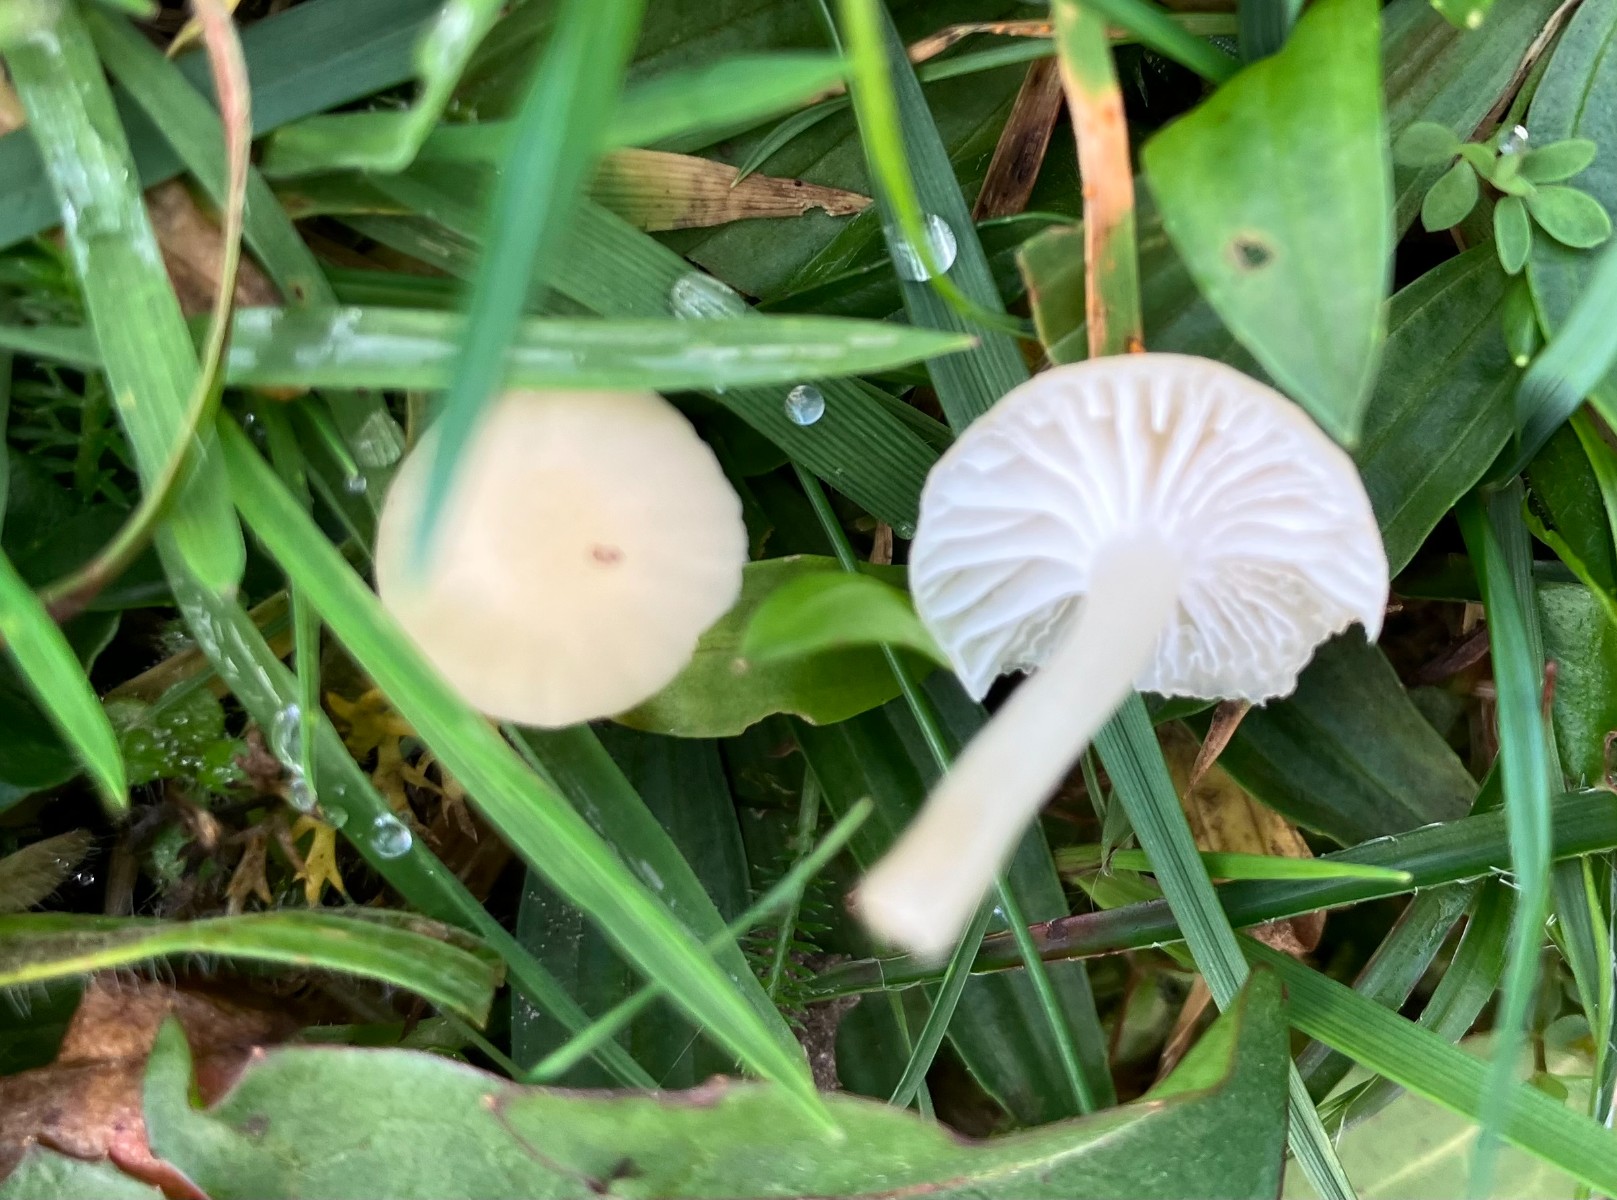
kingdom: Fungi
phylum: Basidiomycota
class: Agaricomycetes
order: Agaricales
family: Hygrophoraceae
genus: Cuphophyllus
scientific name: Cuphophyllus russocoriaceus
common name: ruslæder-vokshat
